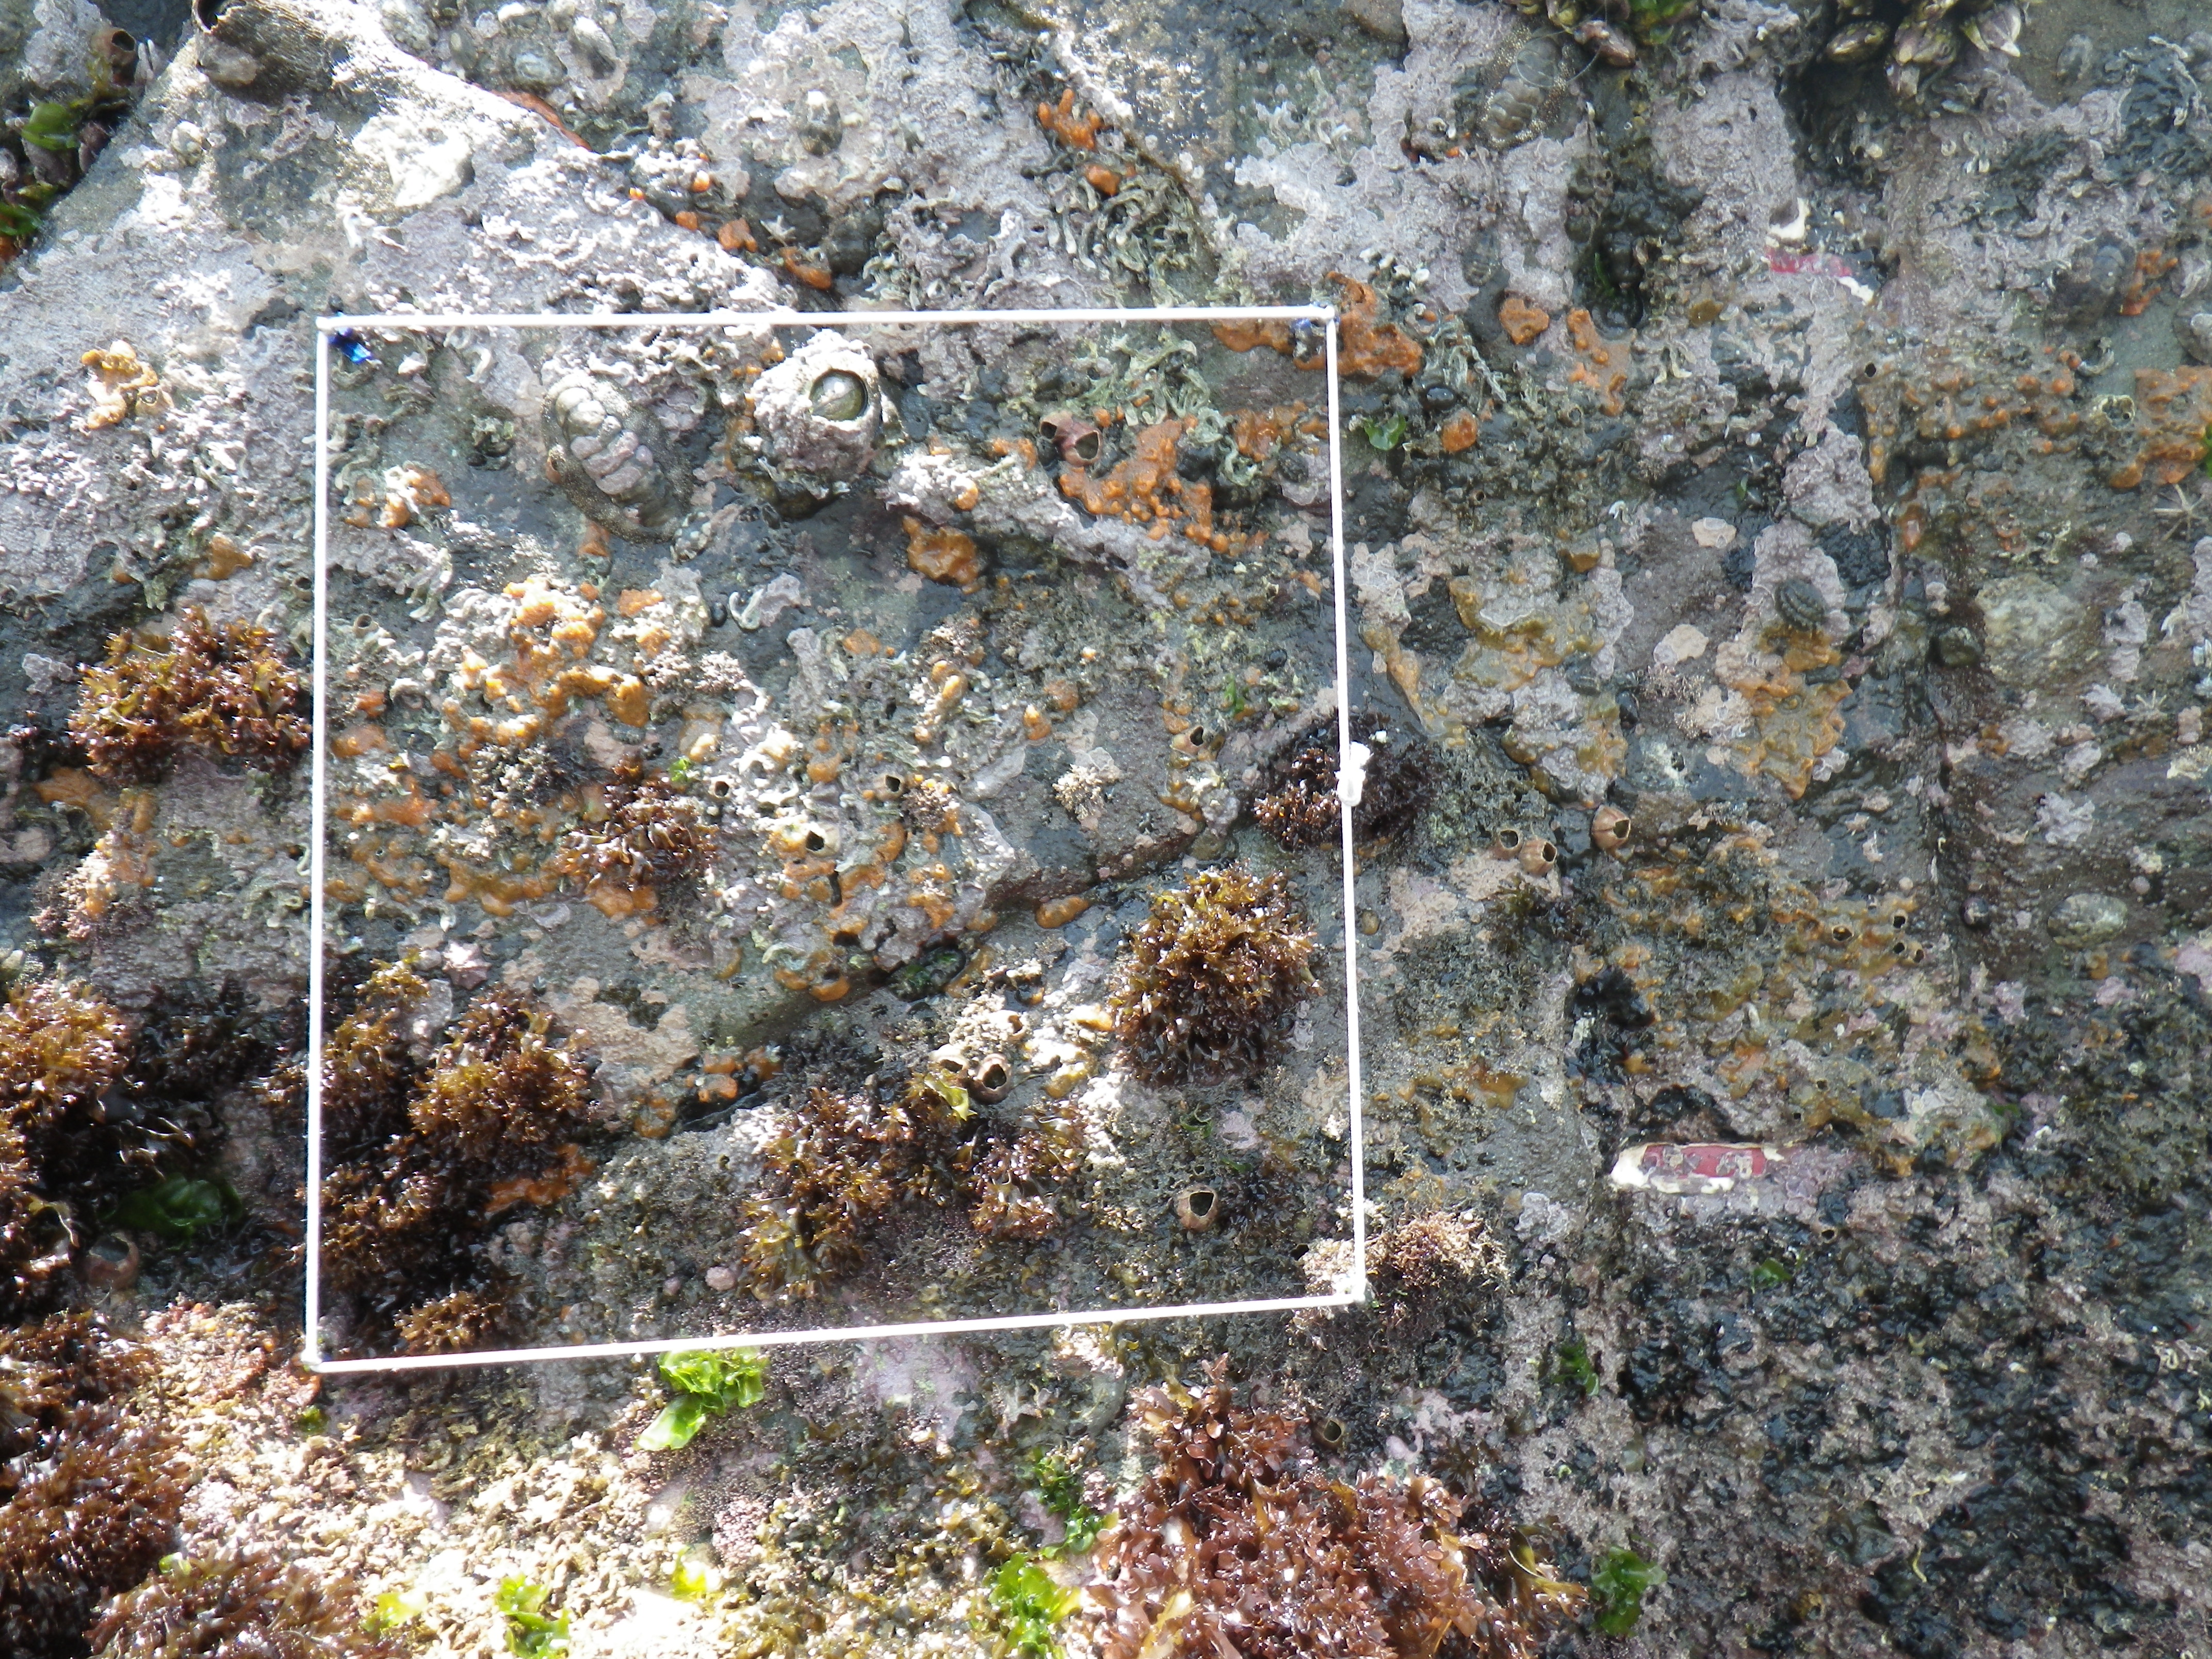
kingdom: Animalia
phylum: Arthropoda
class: Maxillopoda
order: Sessilia
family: Chthamalidae
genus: Chthamalus
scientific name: Chthamalus challengeri
